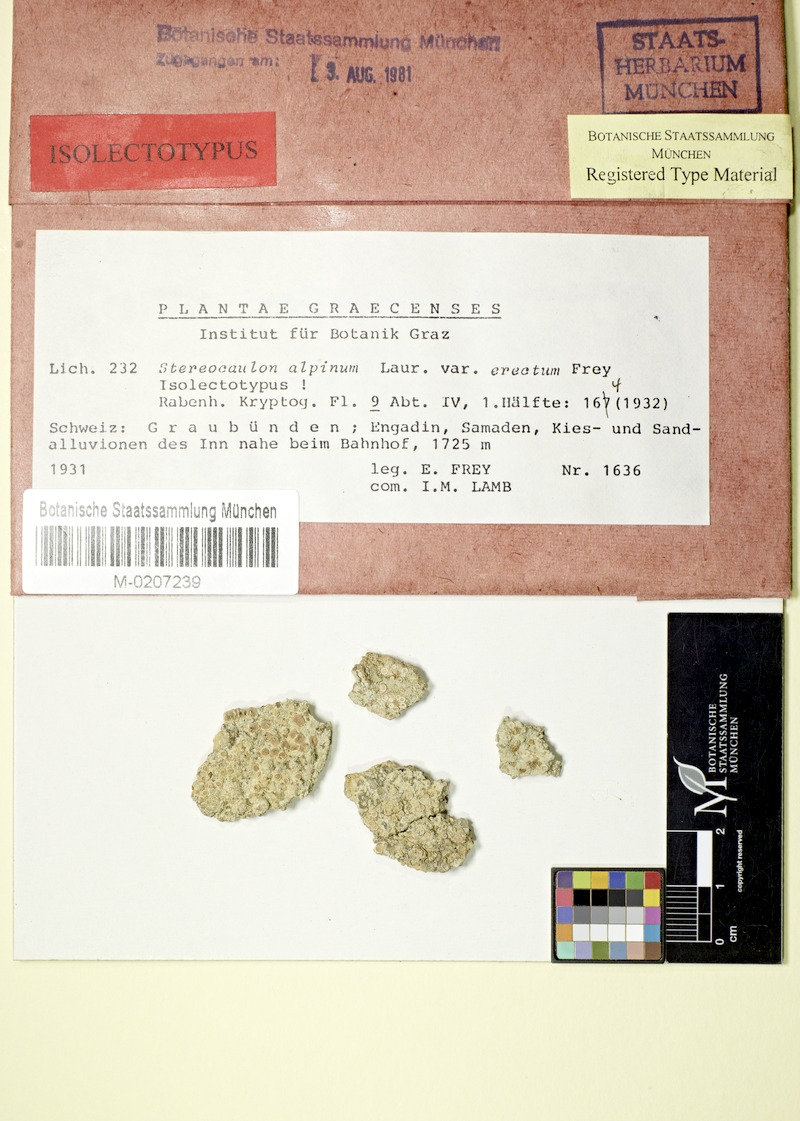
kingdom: Fungi
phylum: Ascomycota
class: Lecanoromycetes
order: Lecanorales
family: Stereocaulaceae
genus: Stereocaulon
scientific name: Stereocaulon alpinum
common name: Alpine foam lichen
